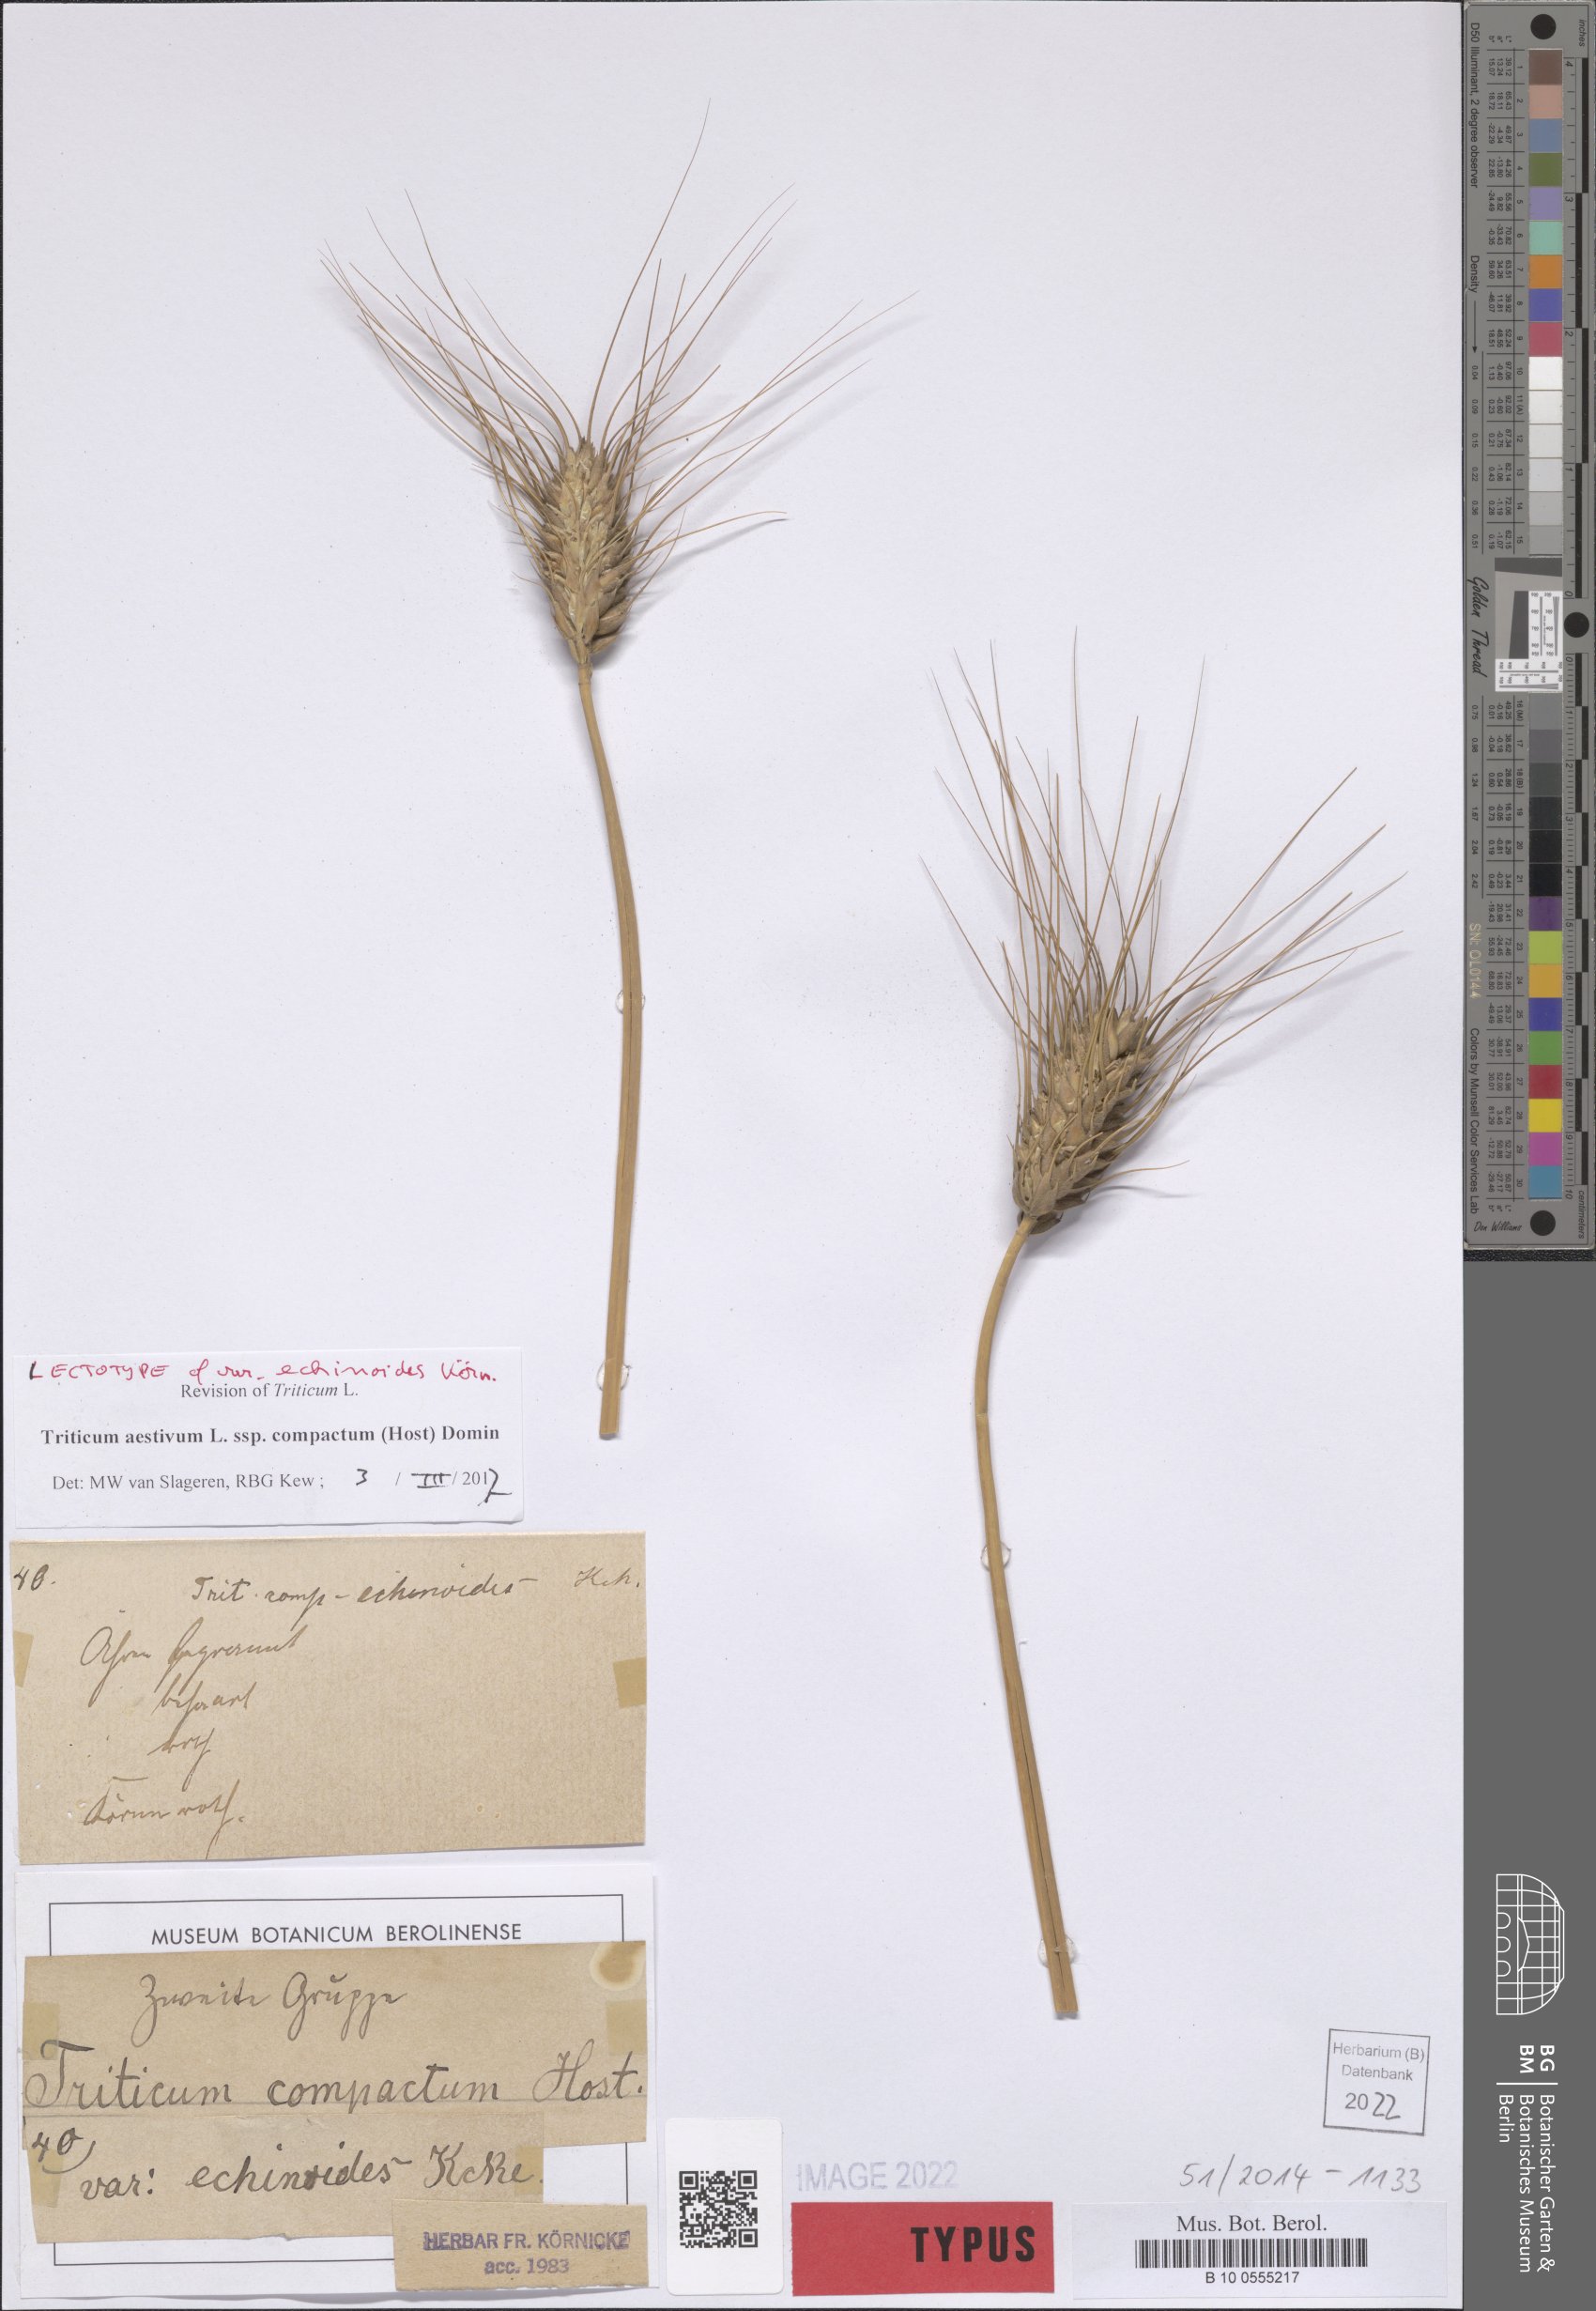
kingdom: Plantae
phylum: Tracheophyta
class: Liliopsida
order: Poales
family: Poaceae
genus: Triticum
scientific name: Triticum aestivum
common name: Common wheat
